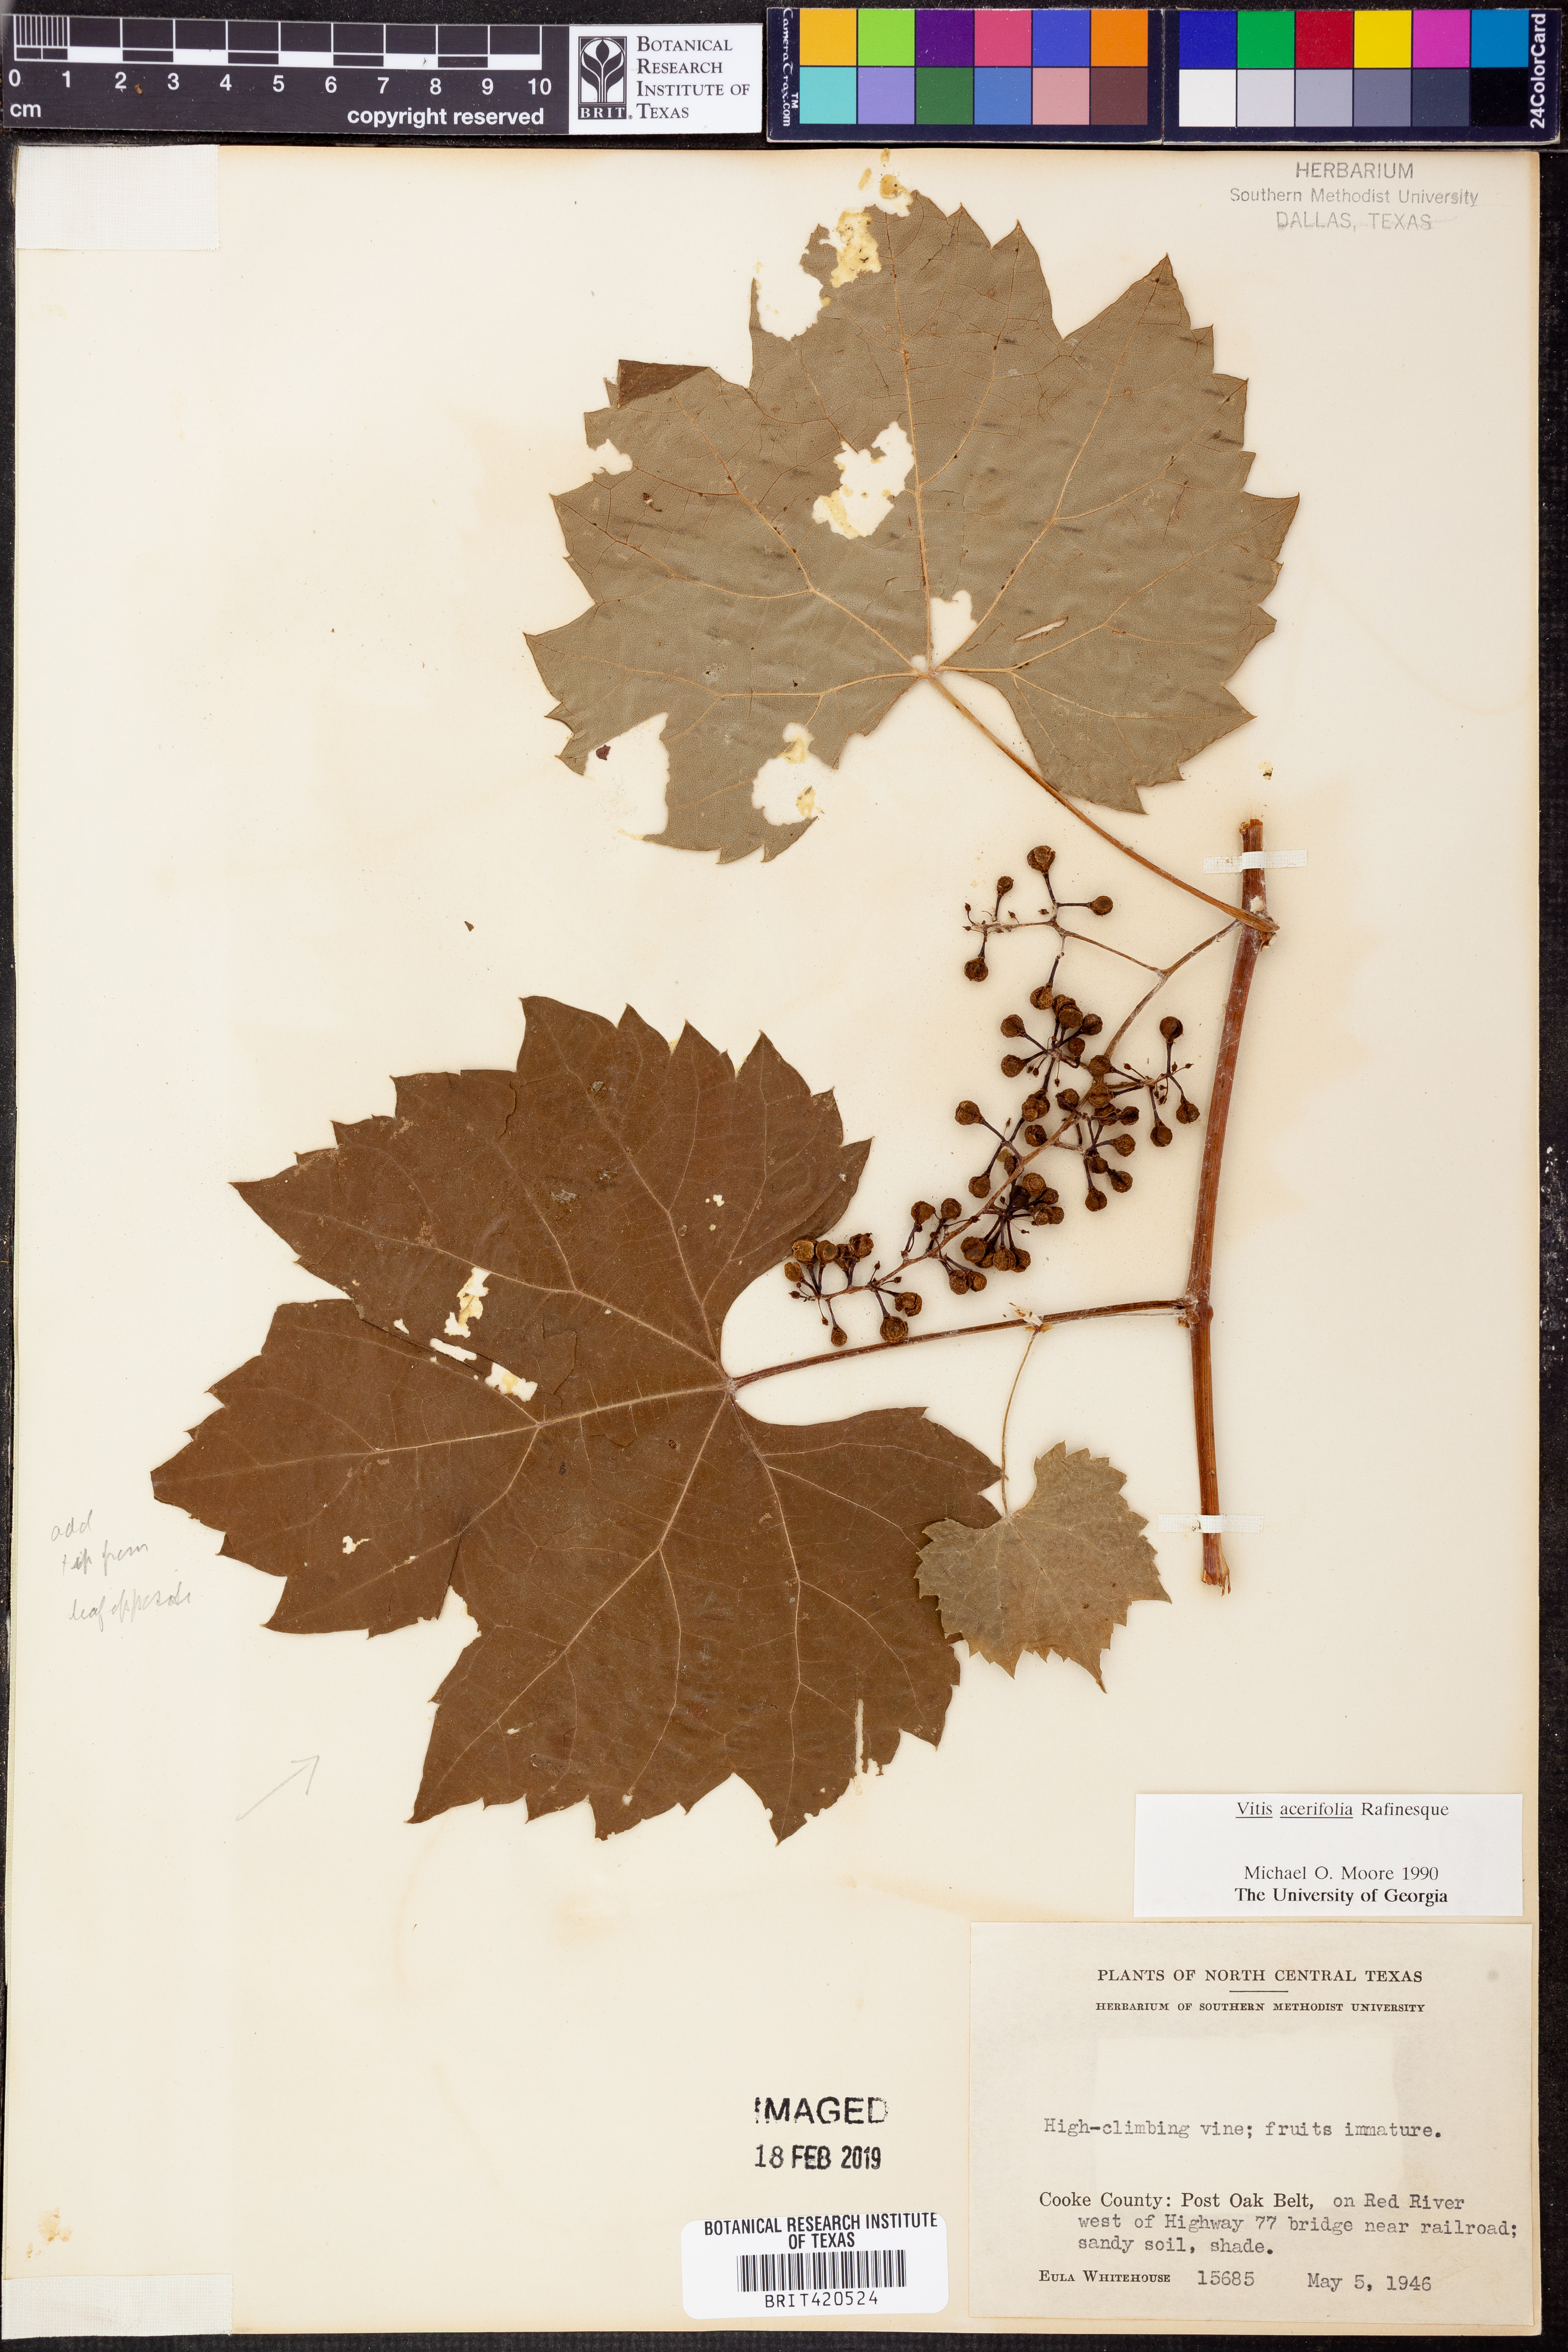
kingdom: Plantae
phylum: Tracheophyta
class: Magnoliopsida
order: Vitales
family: Vitaceae
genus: Vitis
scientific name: Vitis acerifolia
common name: Bush grape
